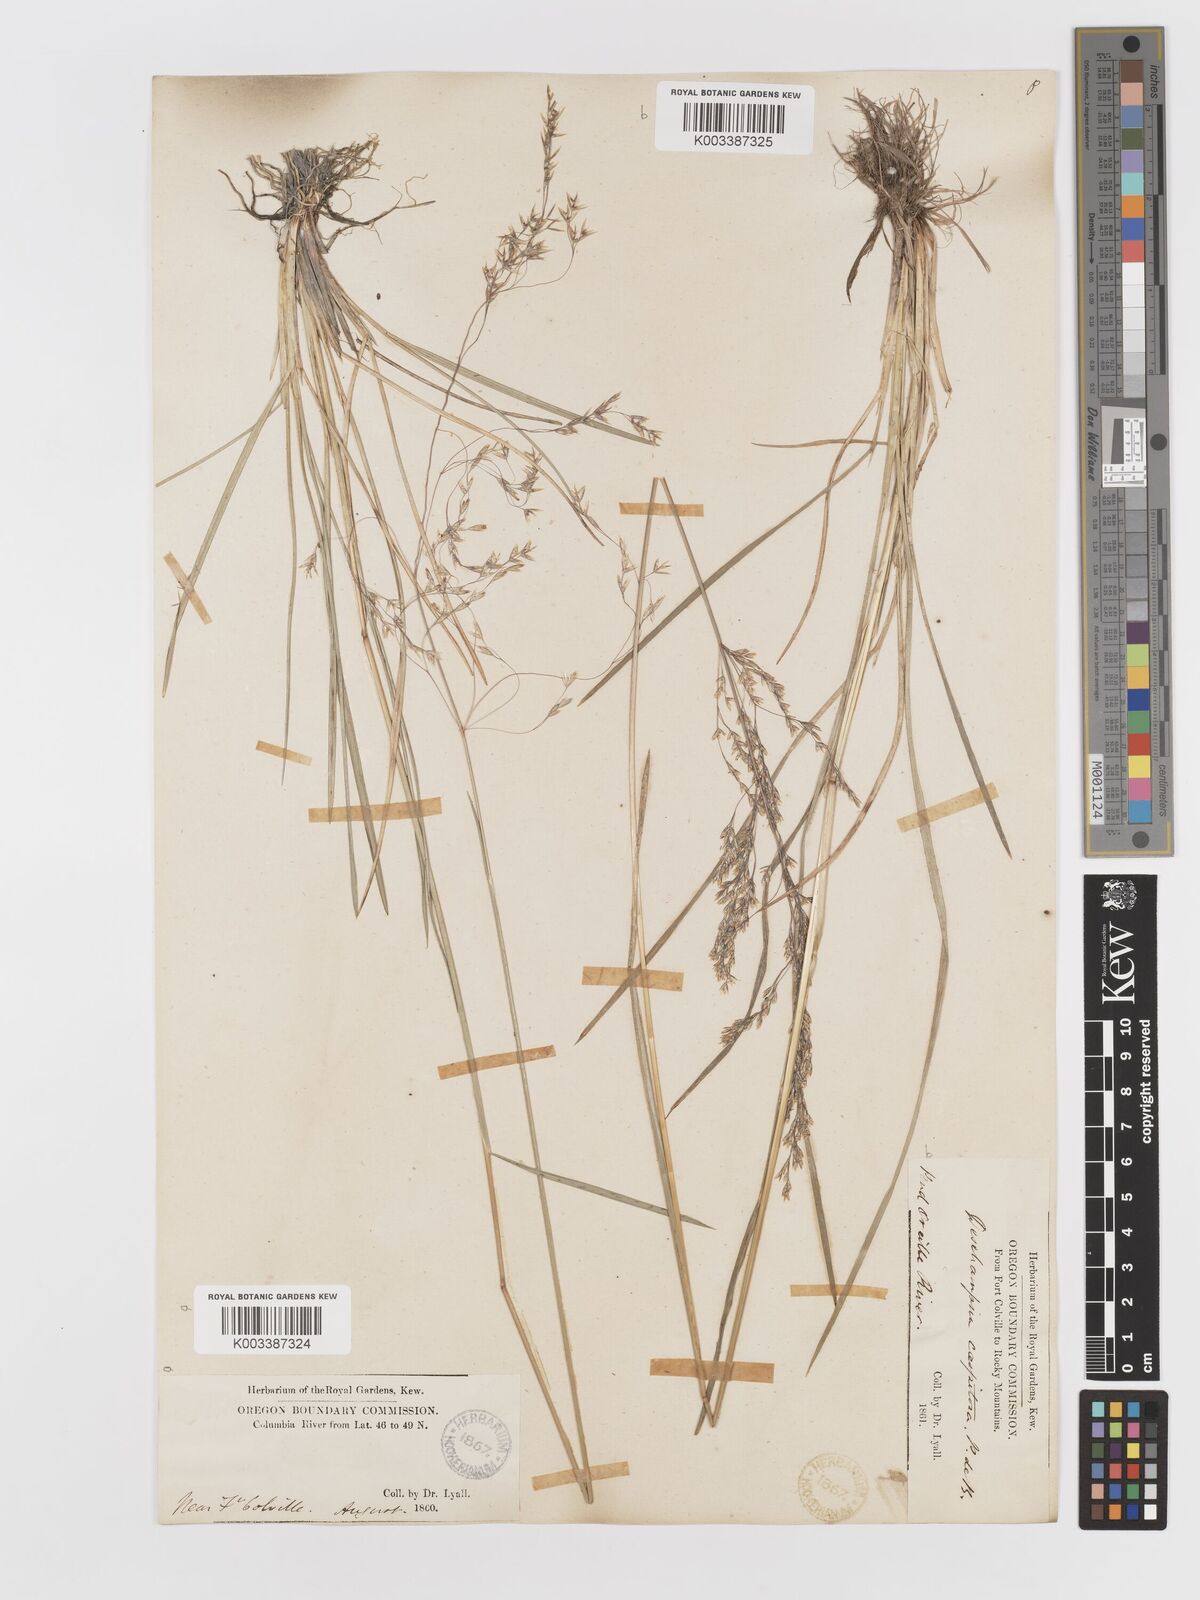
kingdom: Plantae
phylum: Tracheophyta
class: Liliopsida
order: Poales
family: Poaceae
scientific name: Poaceae
